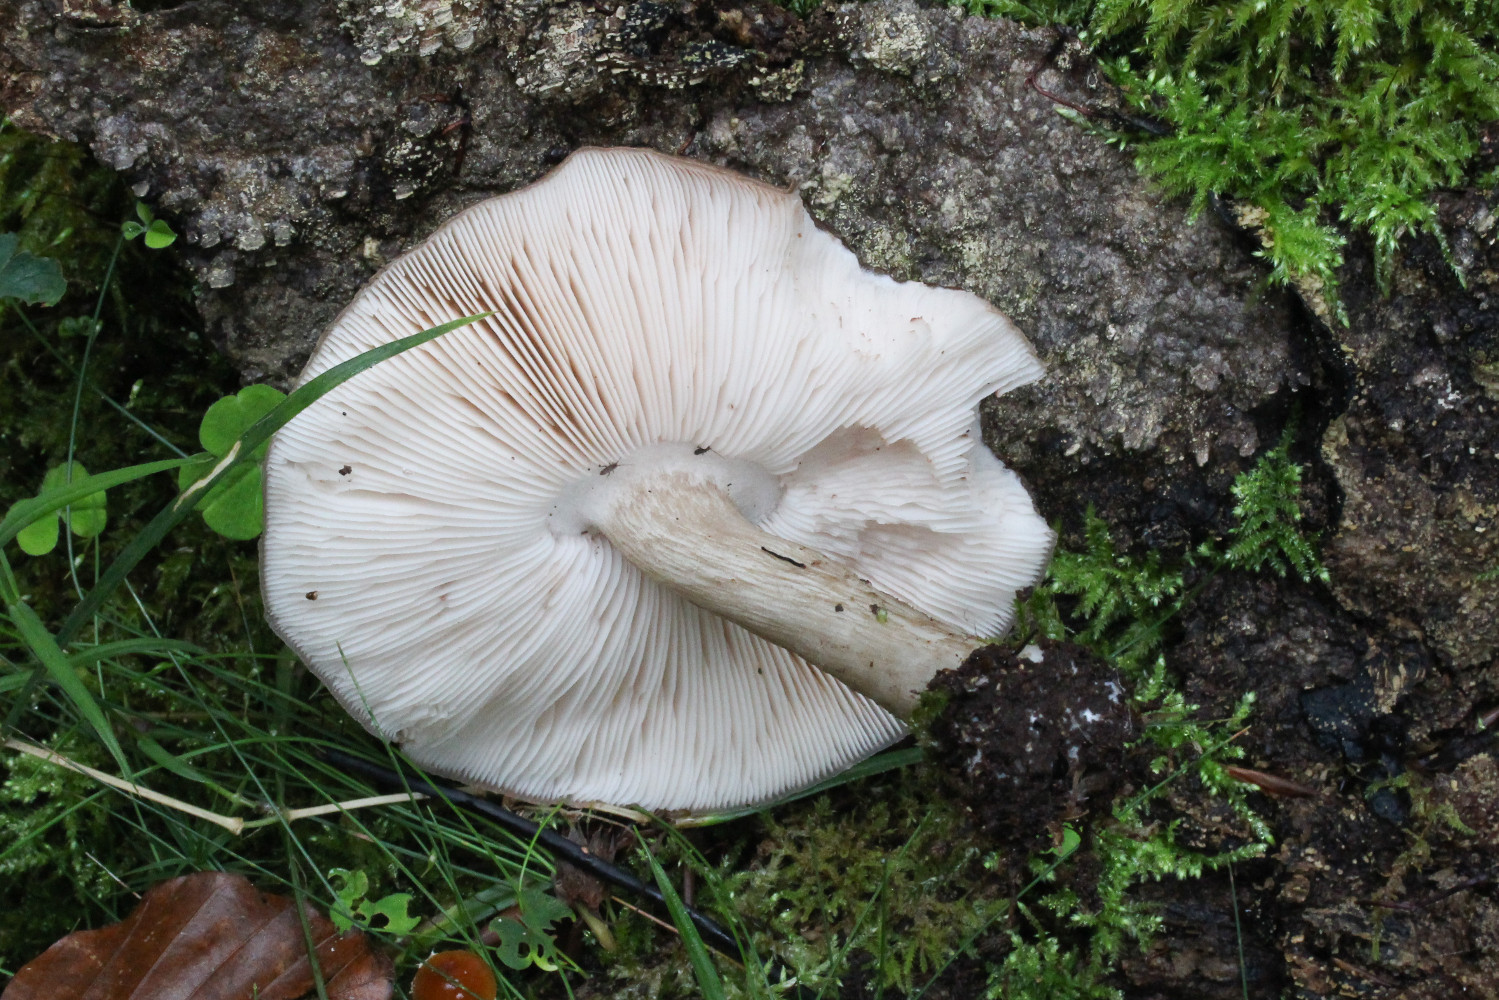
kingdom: Fungi
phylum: Basidiomycota
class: Agaricomycetes
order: Agaricales
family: Pluteaceae
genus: Pluteus
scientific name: Pluteus cervinus
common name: sodfarvet skærmhat
